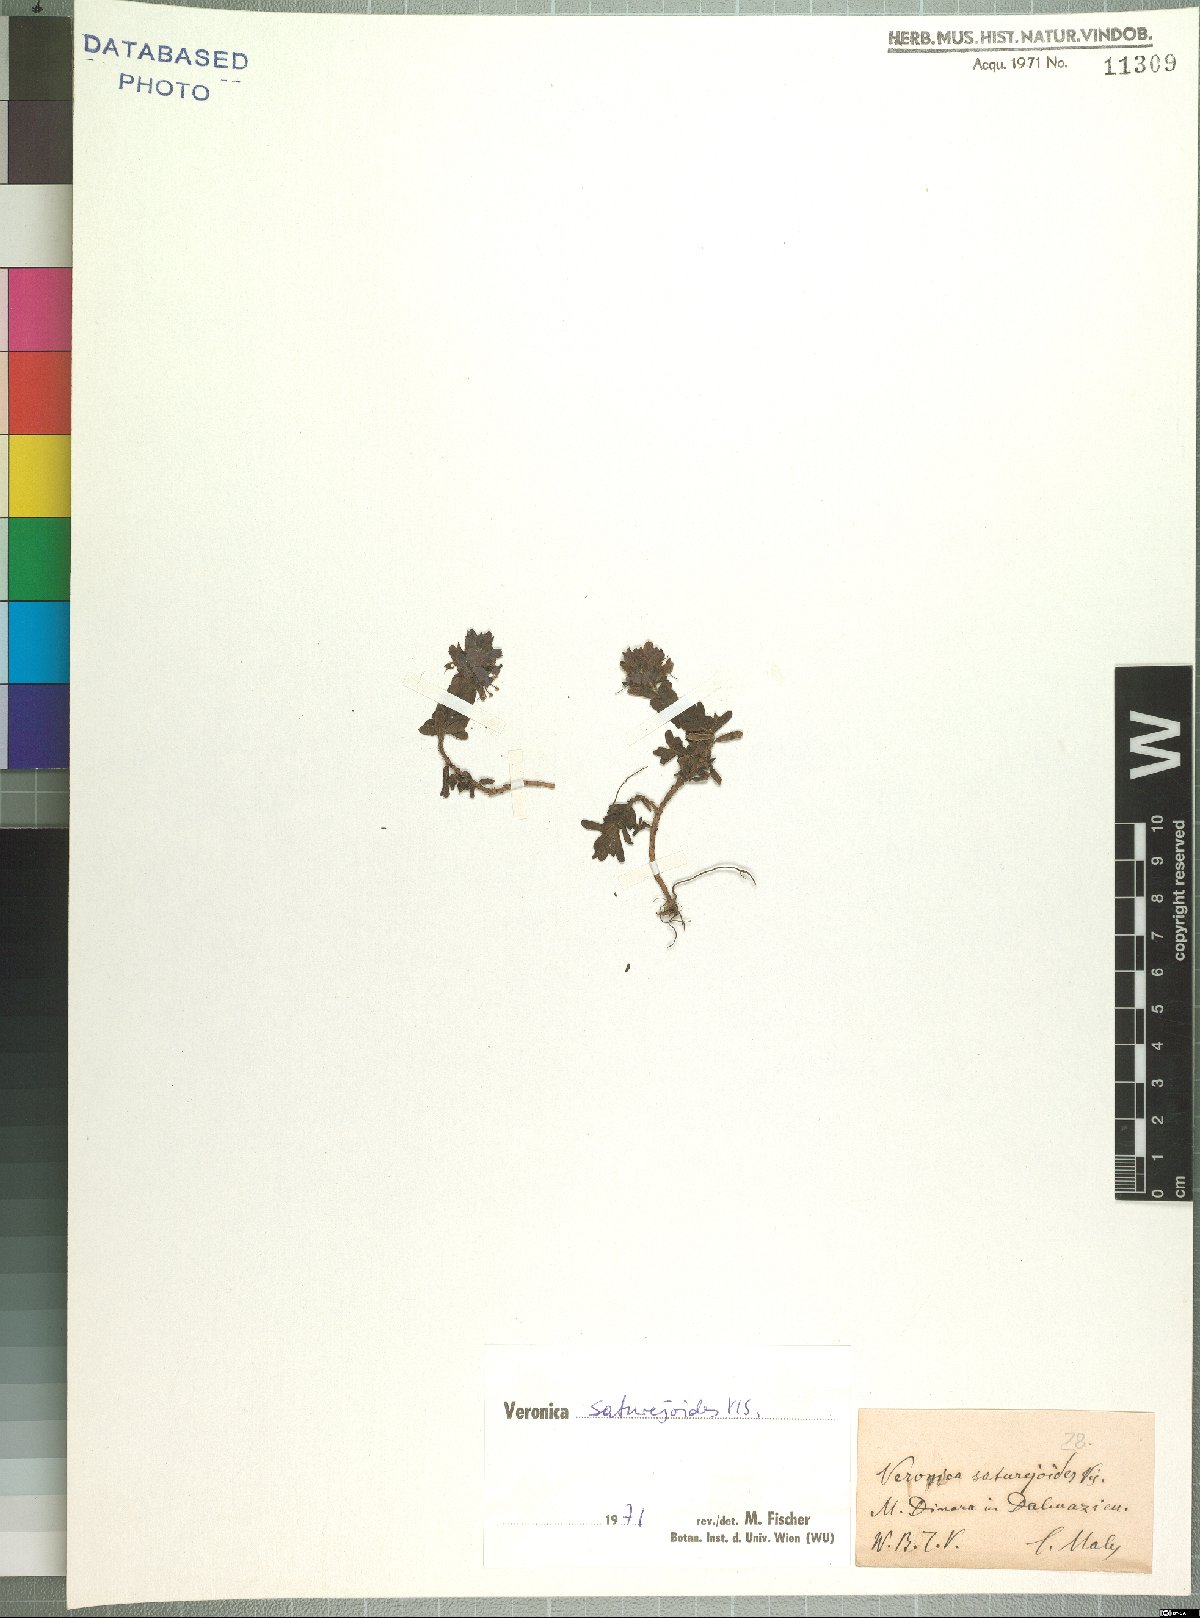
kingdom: Plantae
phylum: Tracheophyta
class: Magnoliopsida
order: Lamiales
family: Plantaginaceae
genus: Veronica
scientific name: Veronica saturejoides
